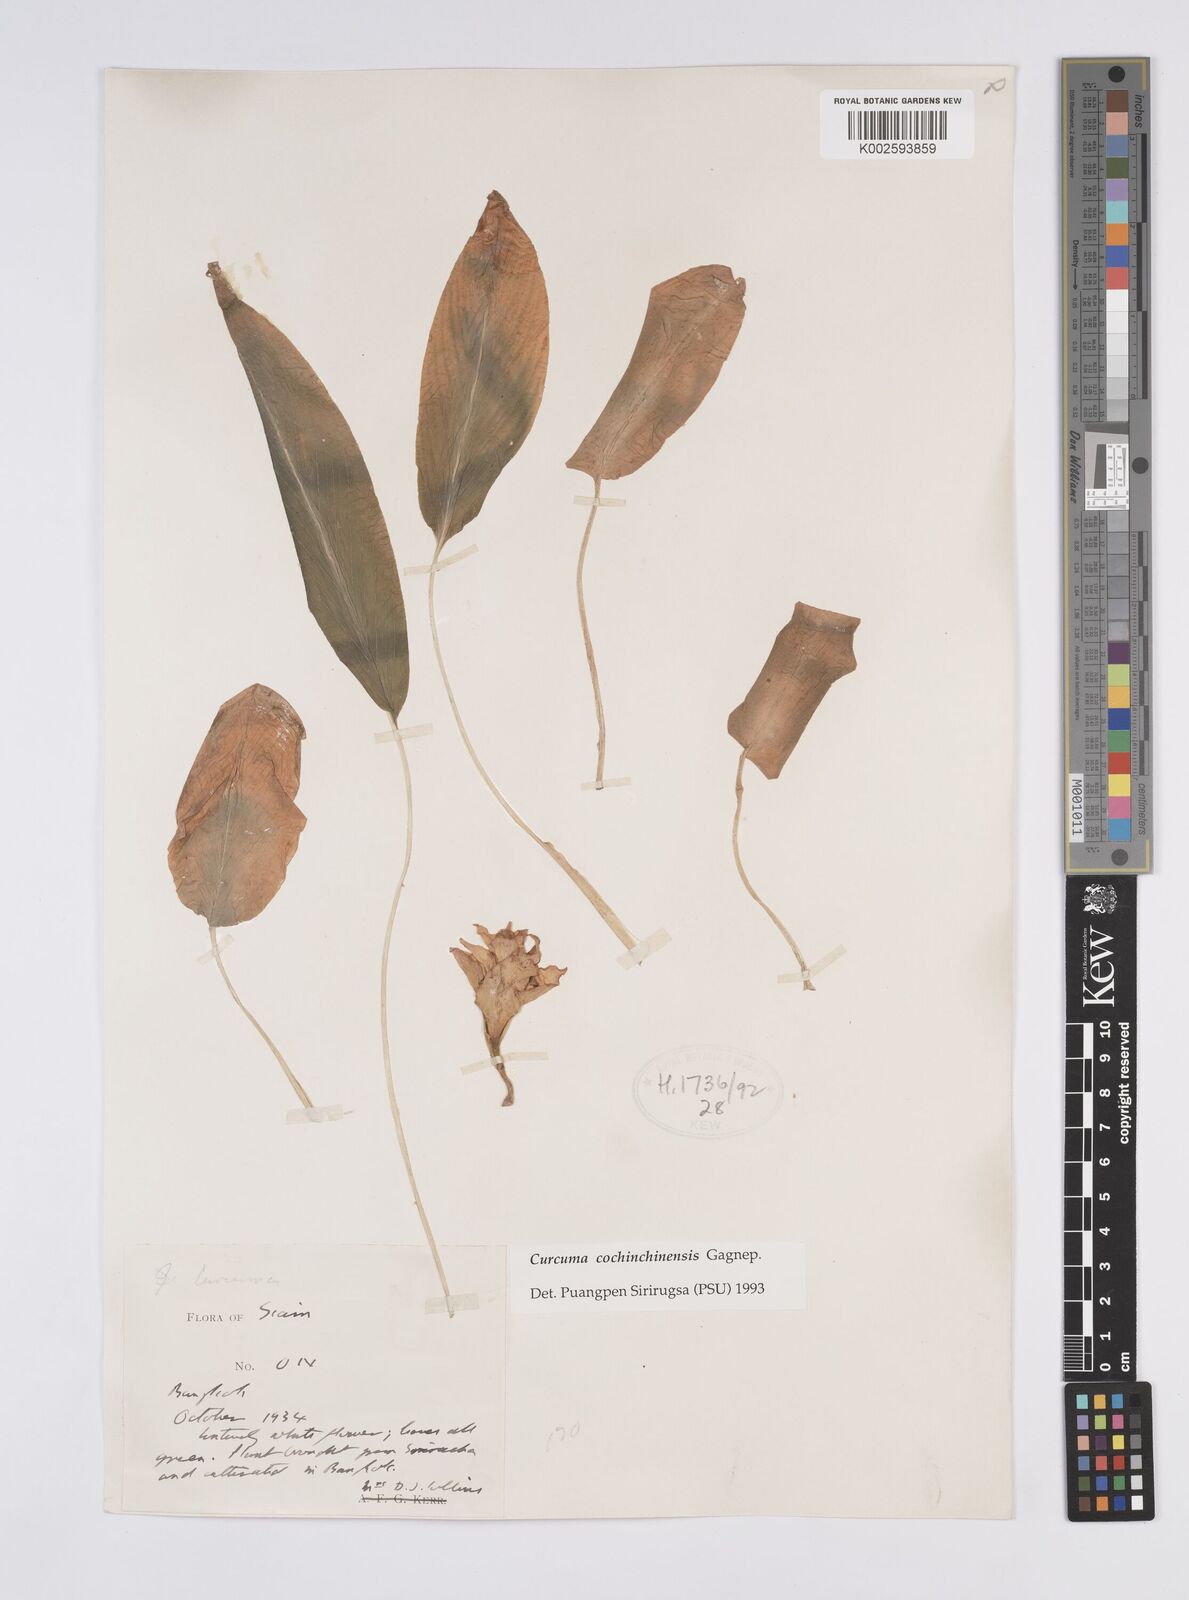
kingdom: Plantae
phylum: Tracheophyta
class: Liliopsida
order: Zingiberales
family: Zingiberaceae
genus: Curcuma
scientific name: Curcuma cochinchinensis
